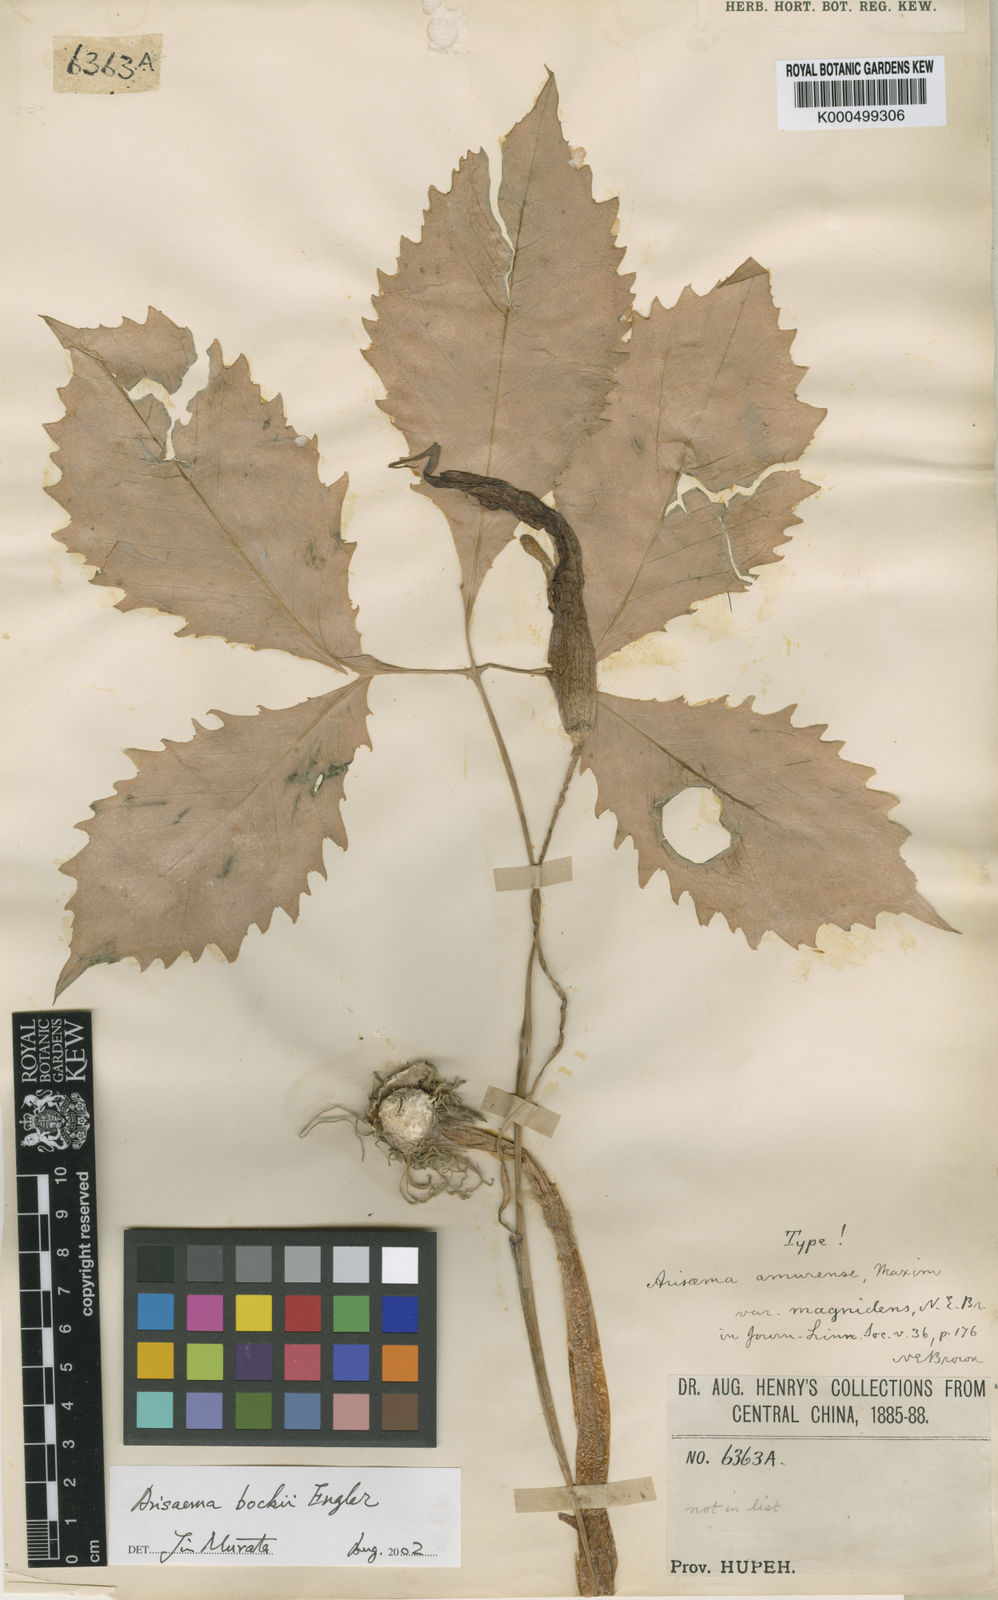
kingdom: Plantae
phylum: Tracheophyta
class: Liliopsida
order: Alismatales
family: Araceae
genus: Arisaema
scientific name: Arisaema amurense
